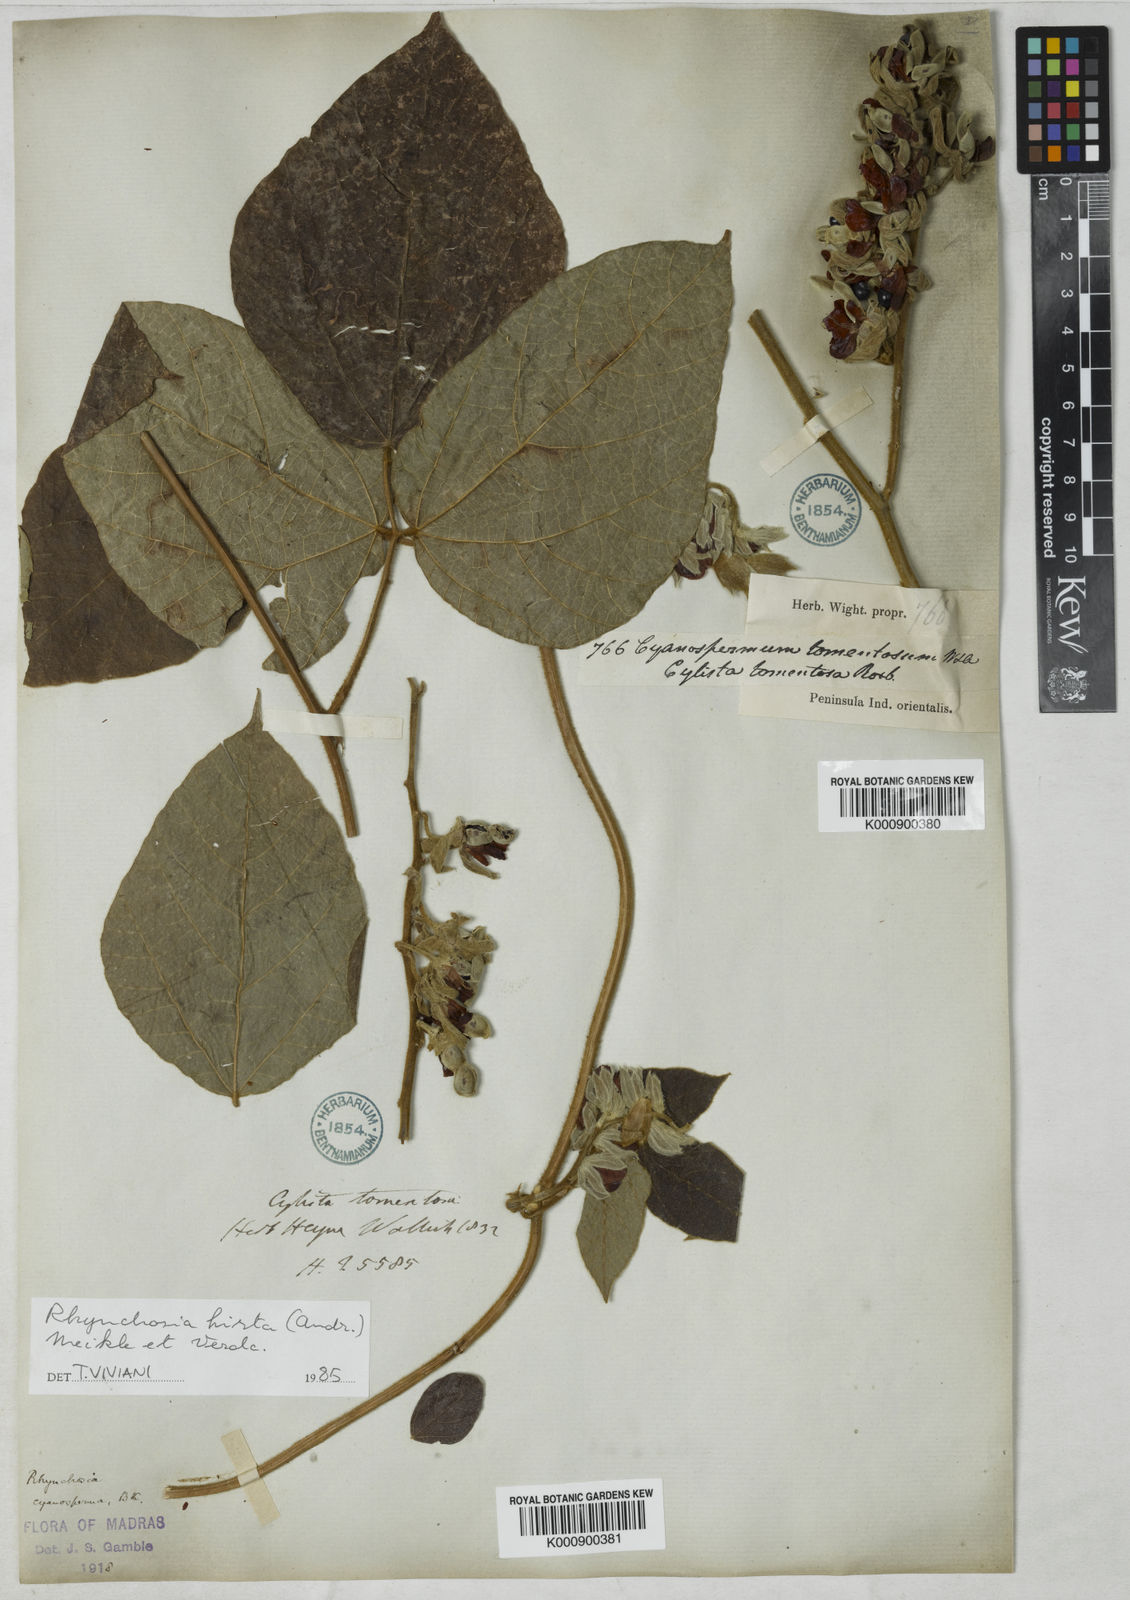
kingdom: Plantae
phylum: Tracheophyta
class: Magnoliopsida
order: Fabales
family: Fabaceae
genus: Rhynchosia
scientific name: Rhynchosia hirta
